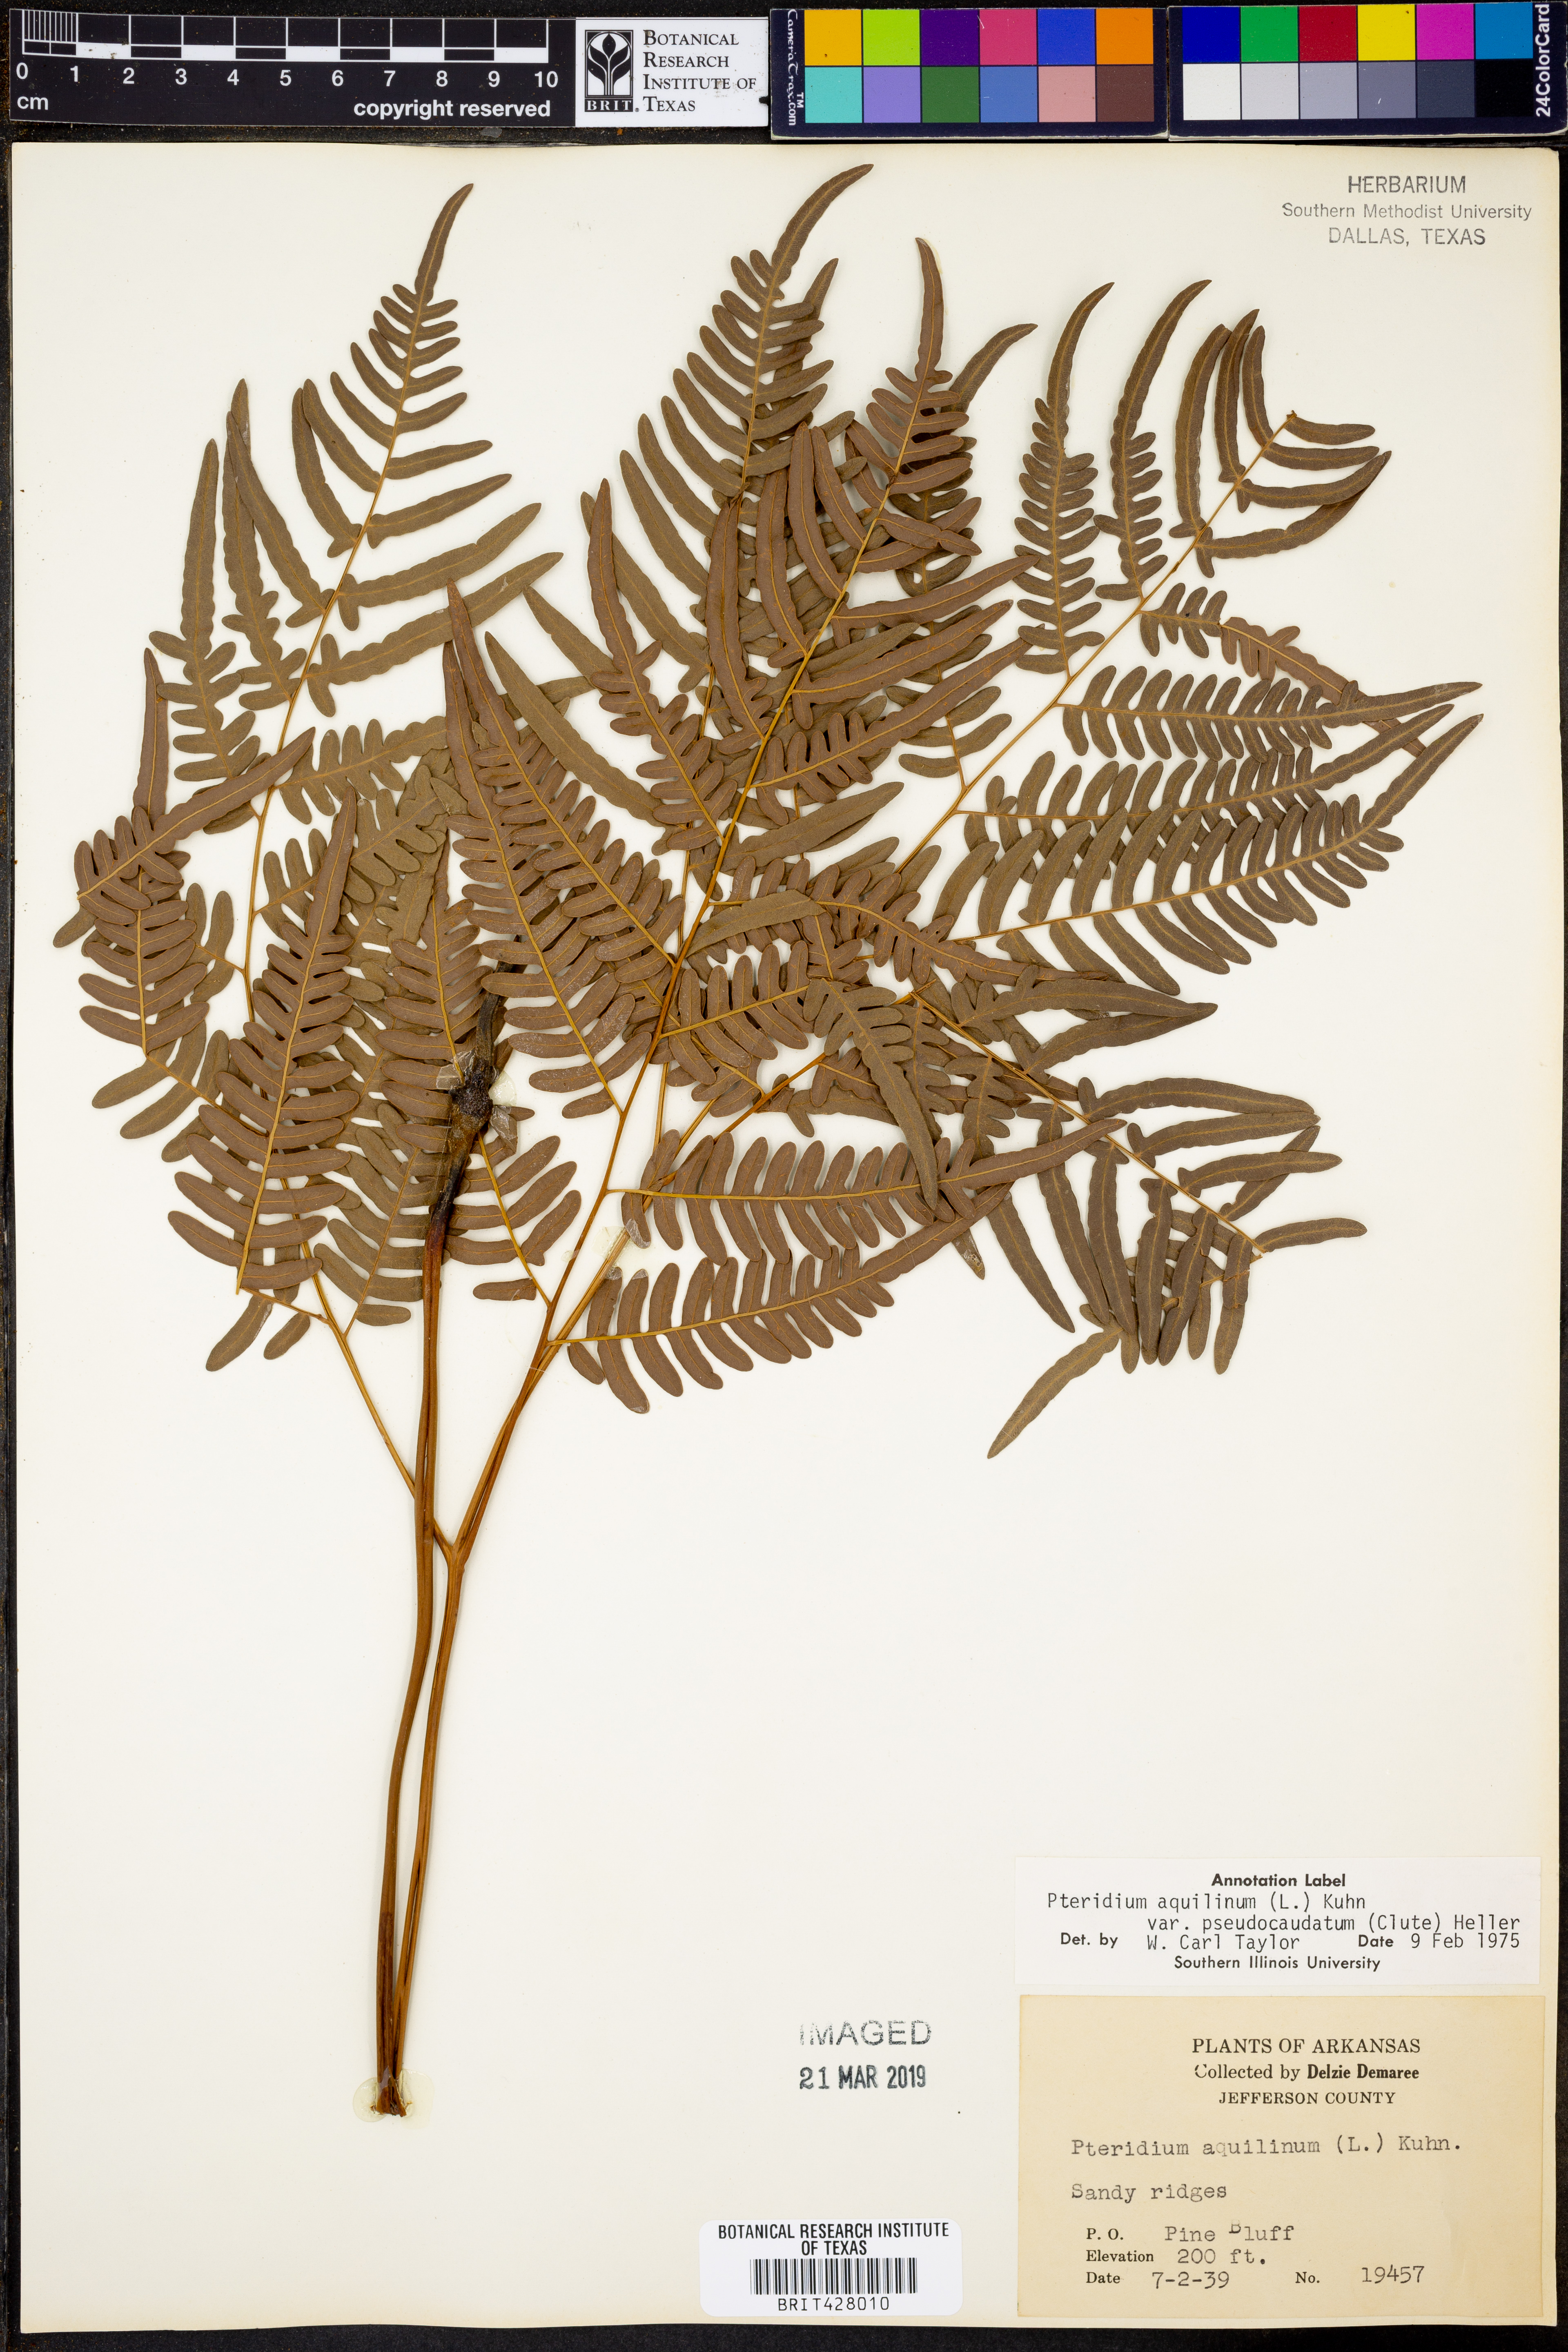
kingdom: Plantae
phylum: Tracheophyta
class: Polypodiopsida
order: Polypodiales
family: Dennstaedtiaceae
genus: Pteridium
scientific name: Pteridium aquilinum
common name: Bracken
